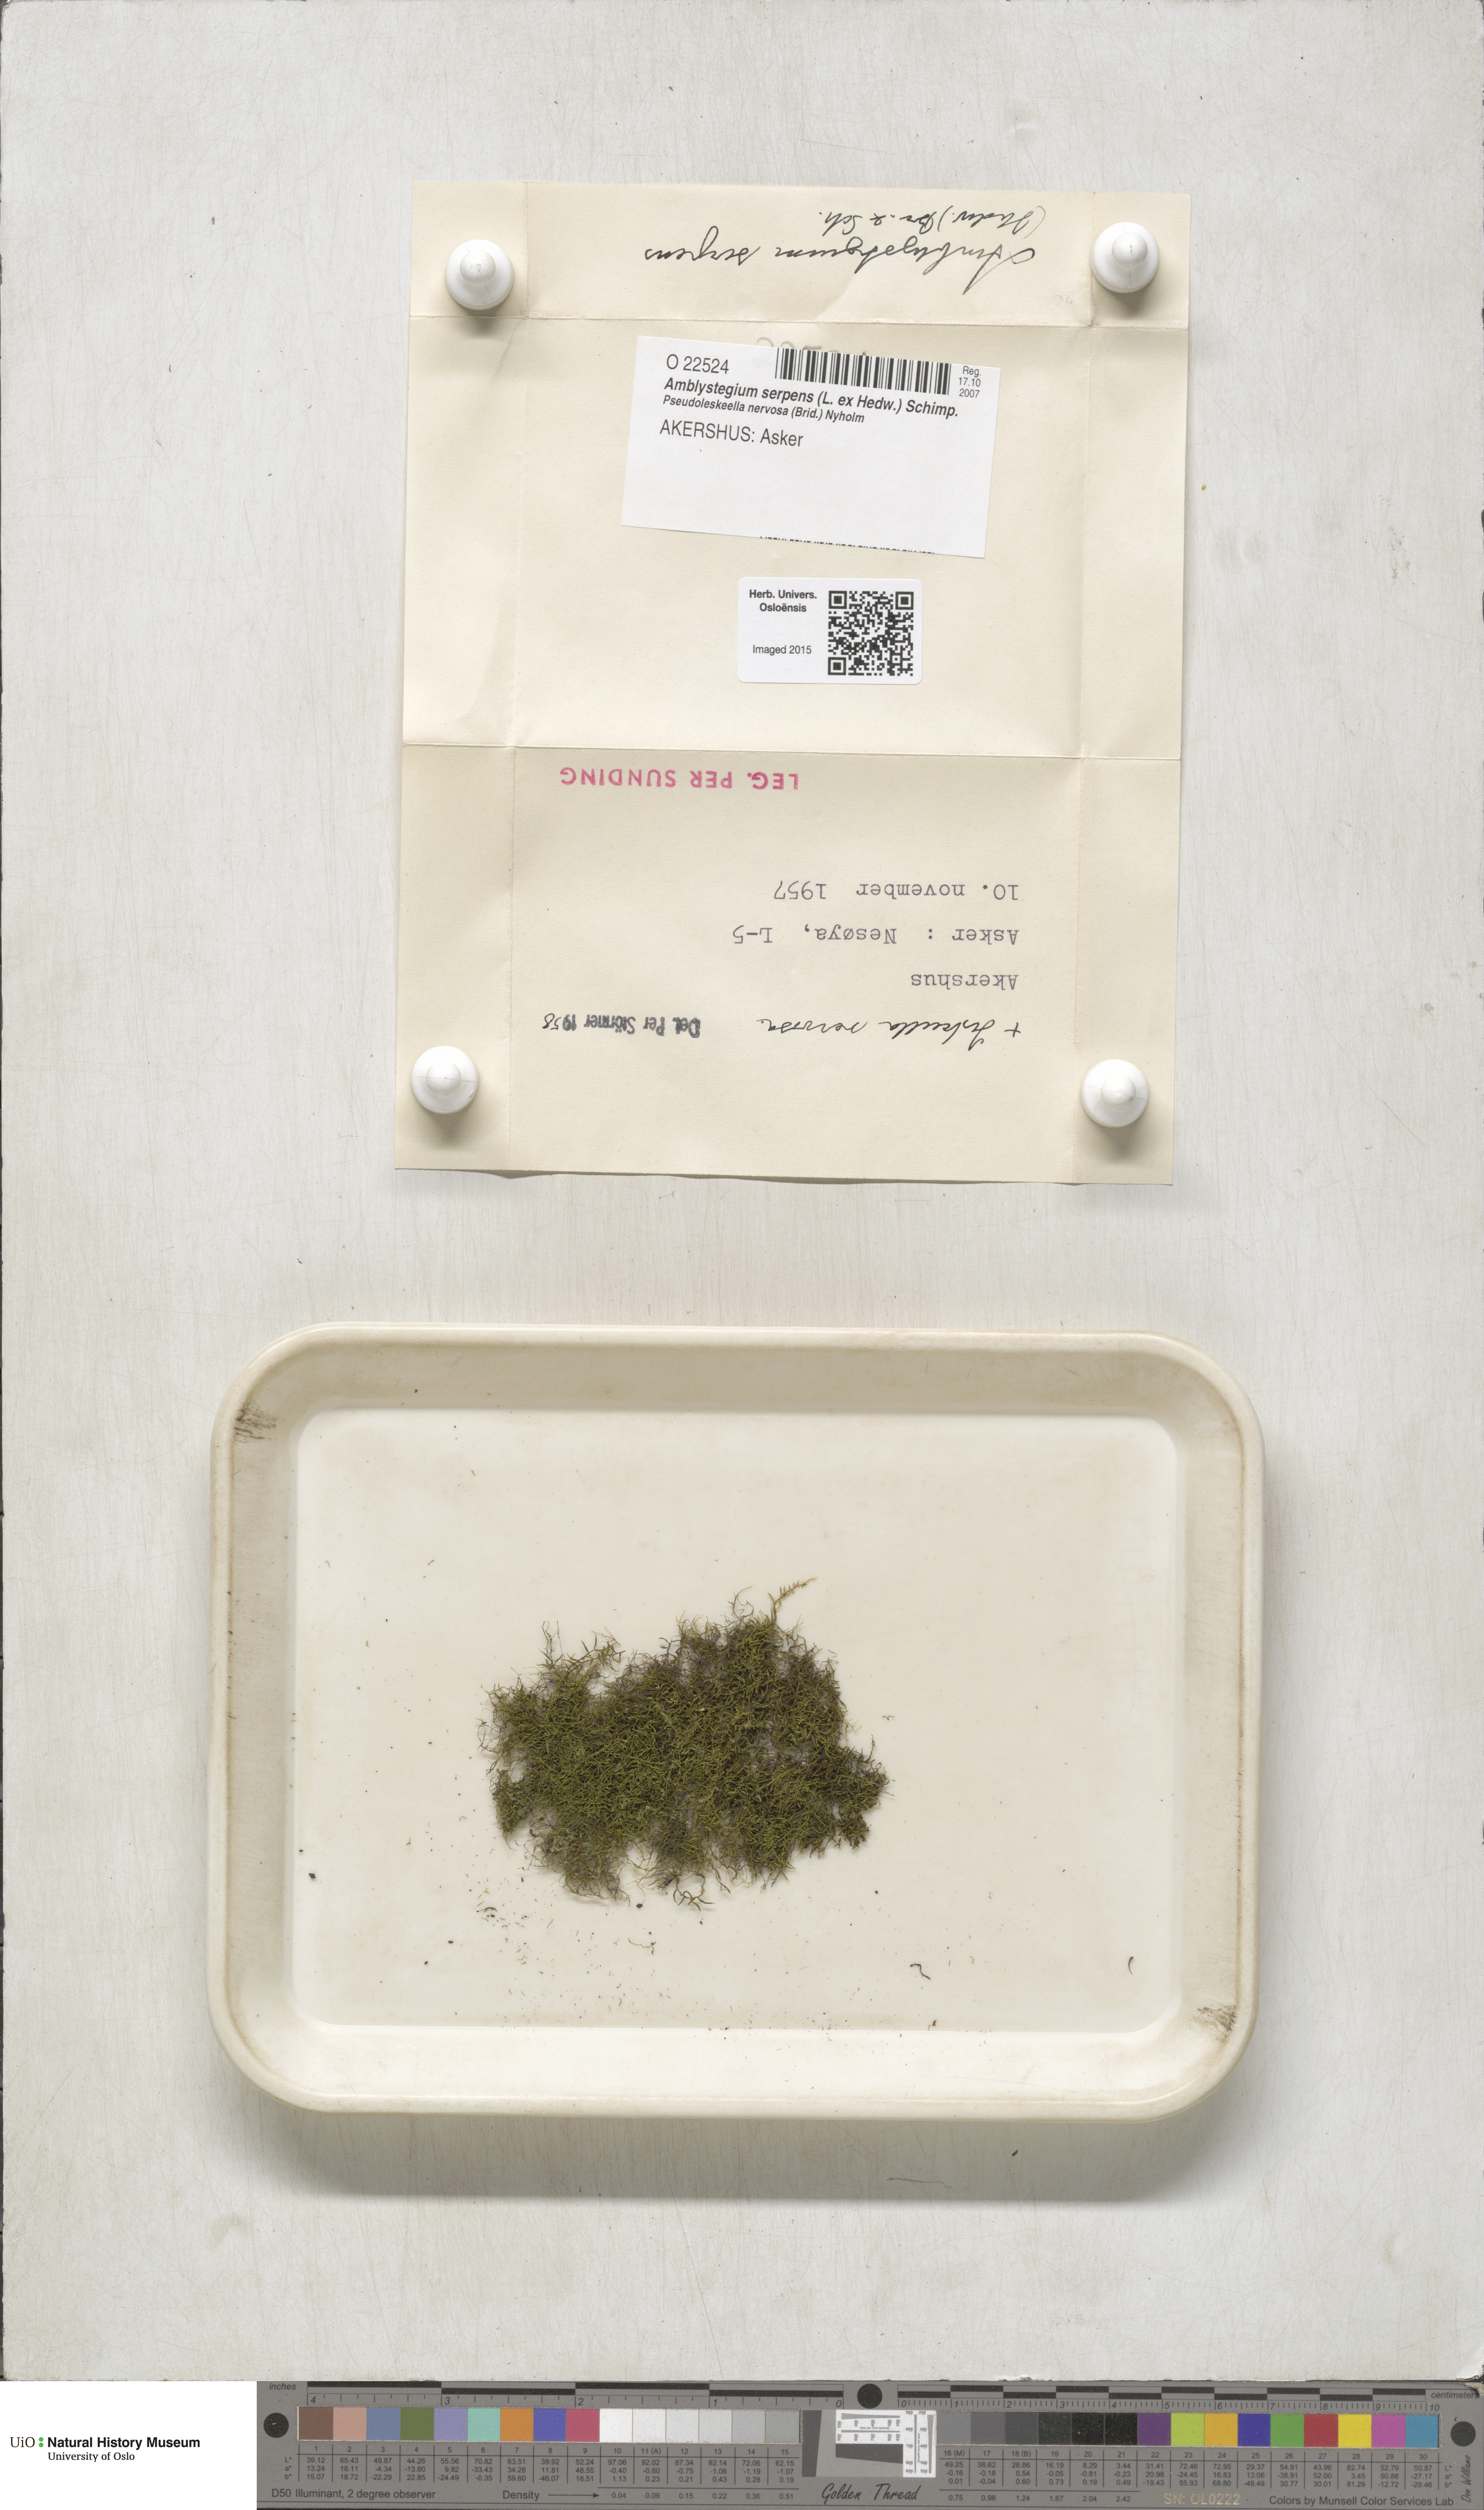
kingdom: Plantae
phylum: Bryophyta
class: Bryopsida
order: Hypnales
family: Amblystegiaceae
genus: Amblystegium
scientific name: Amblystegium serpens
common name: Jurkatzka's feather moss
